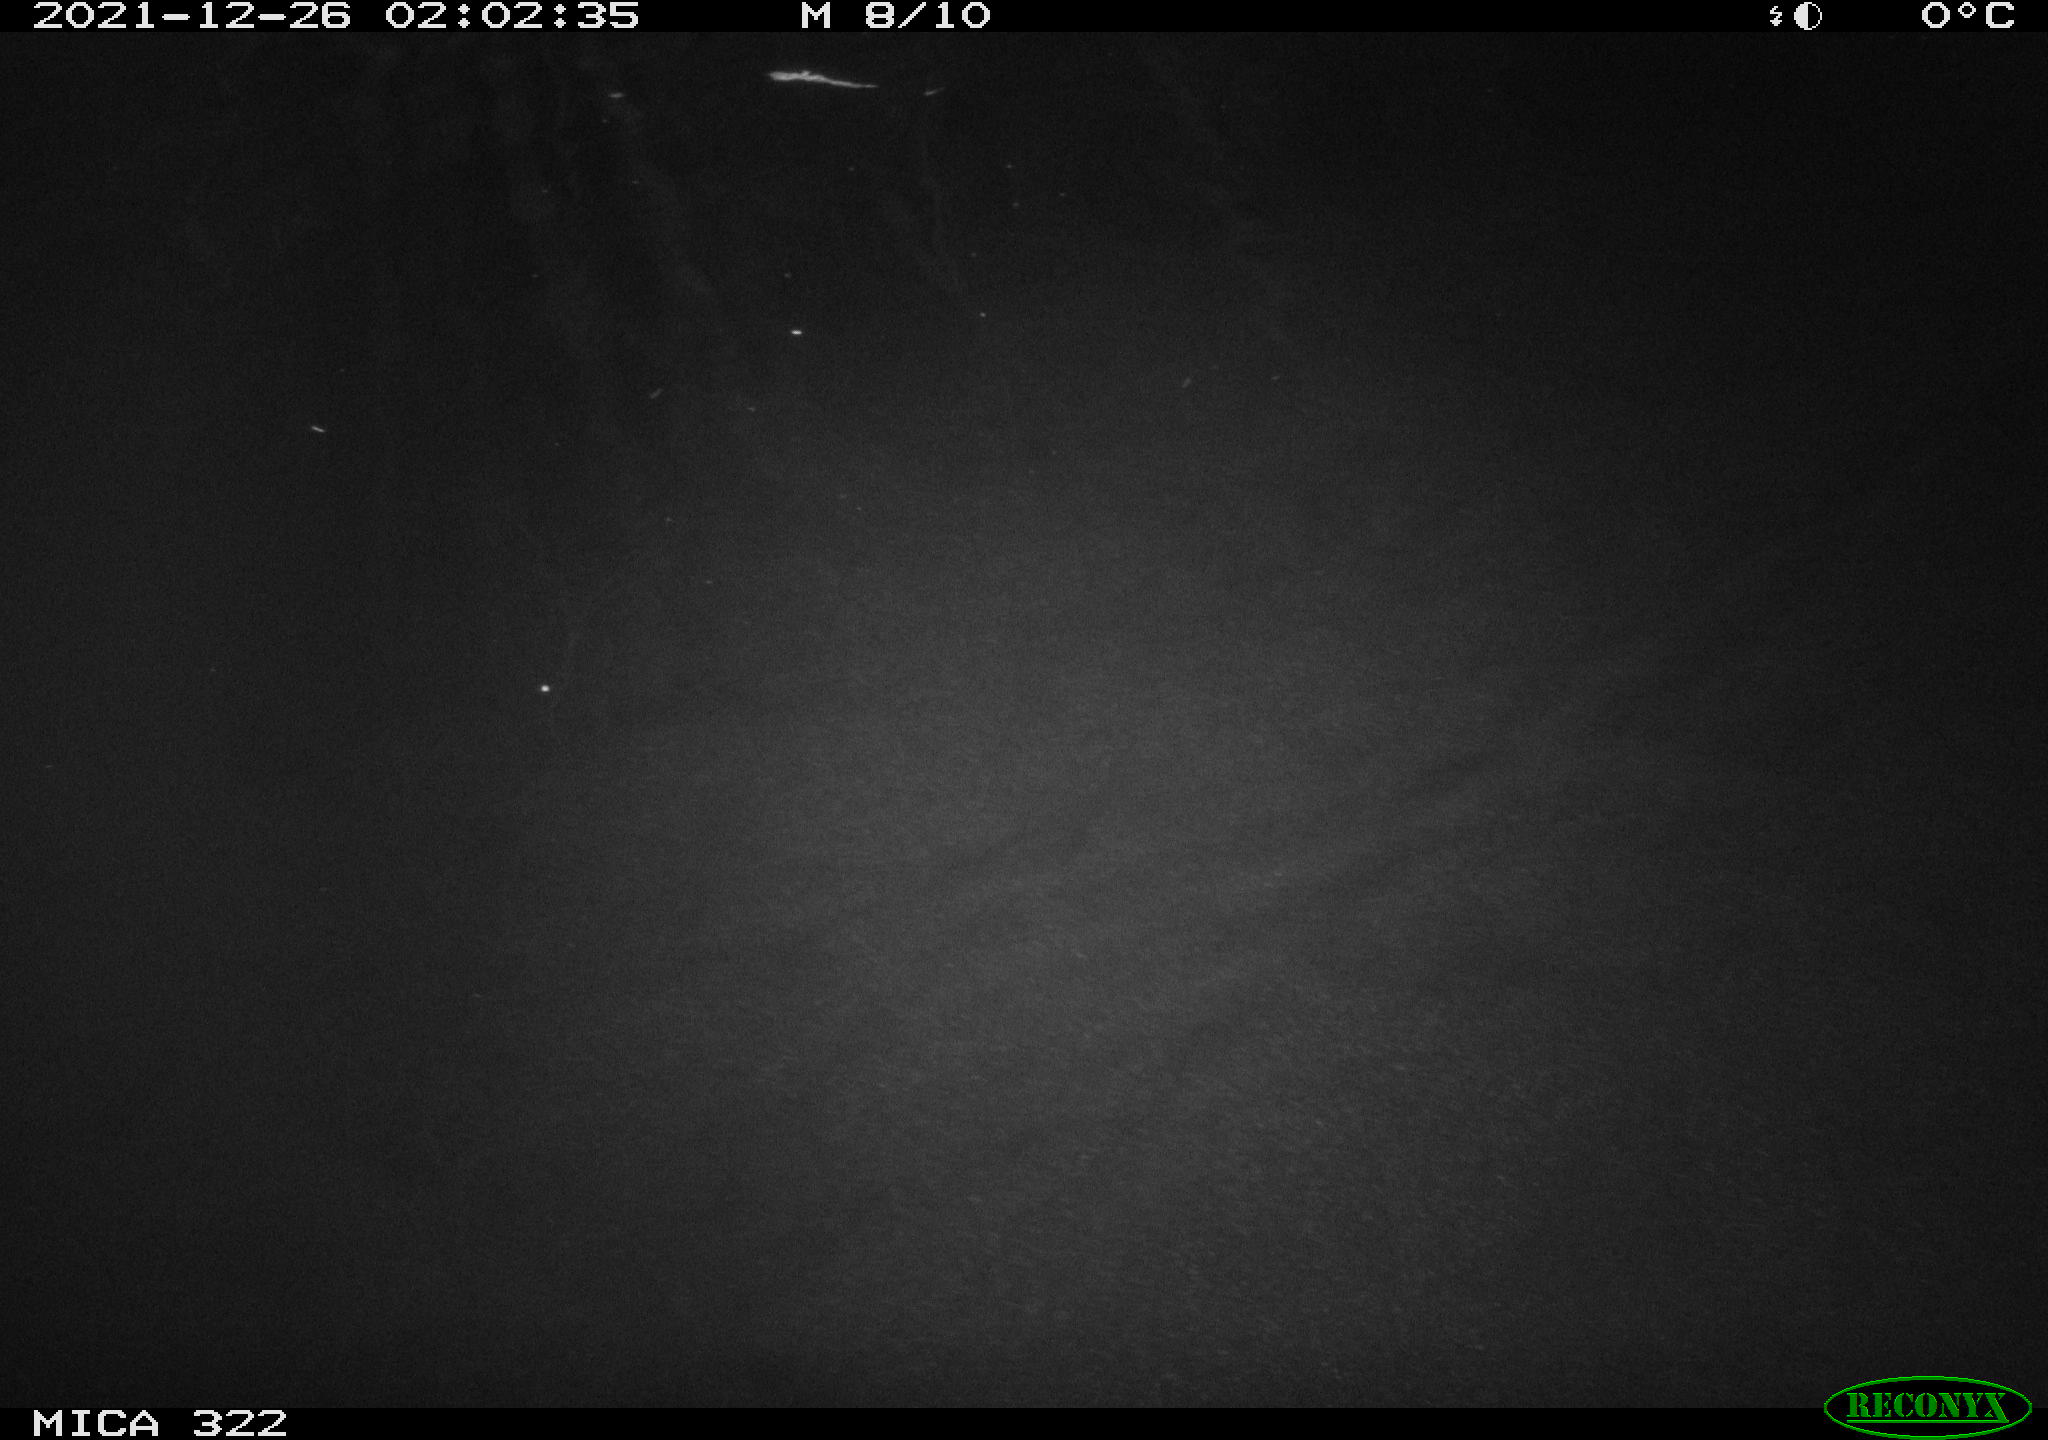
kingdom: Animalia
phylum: Chordata
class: Aves
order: Anseriformes
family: Anatidae
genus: Anas
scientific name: Anas
